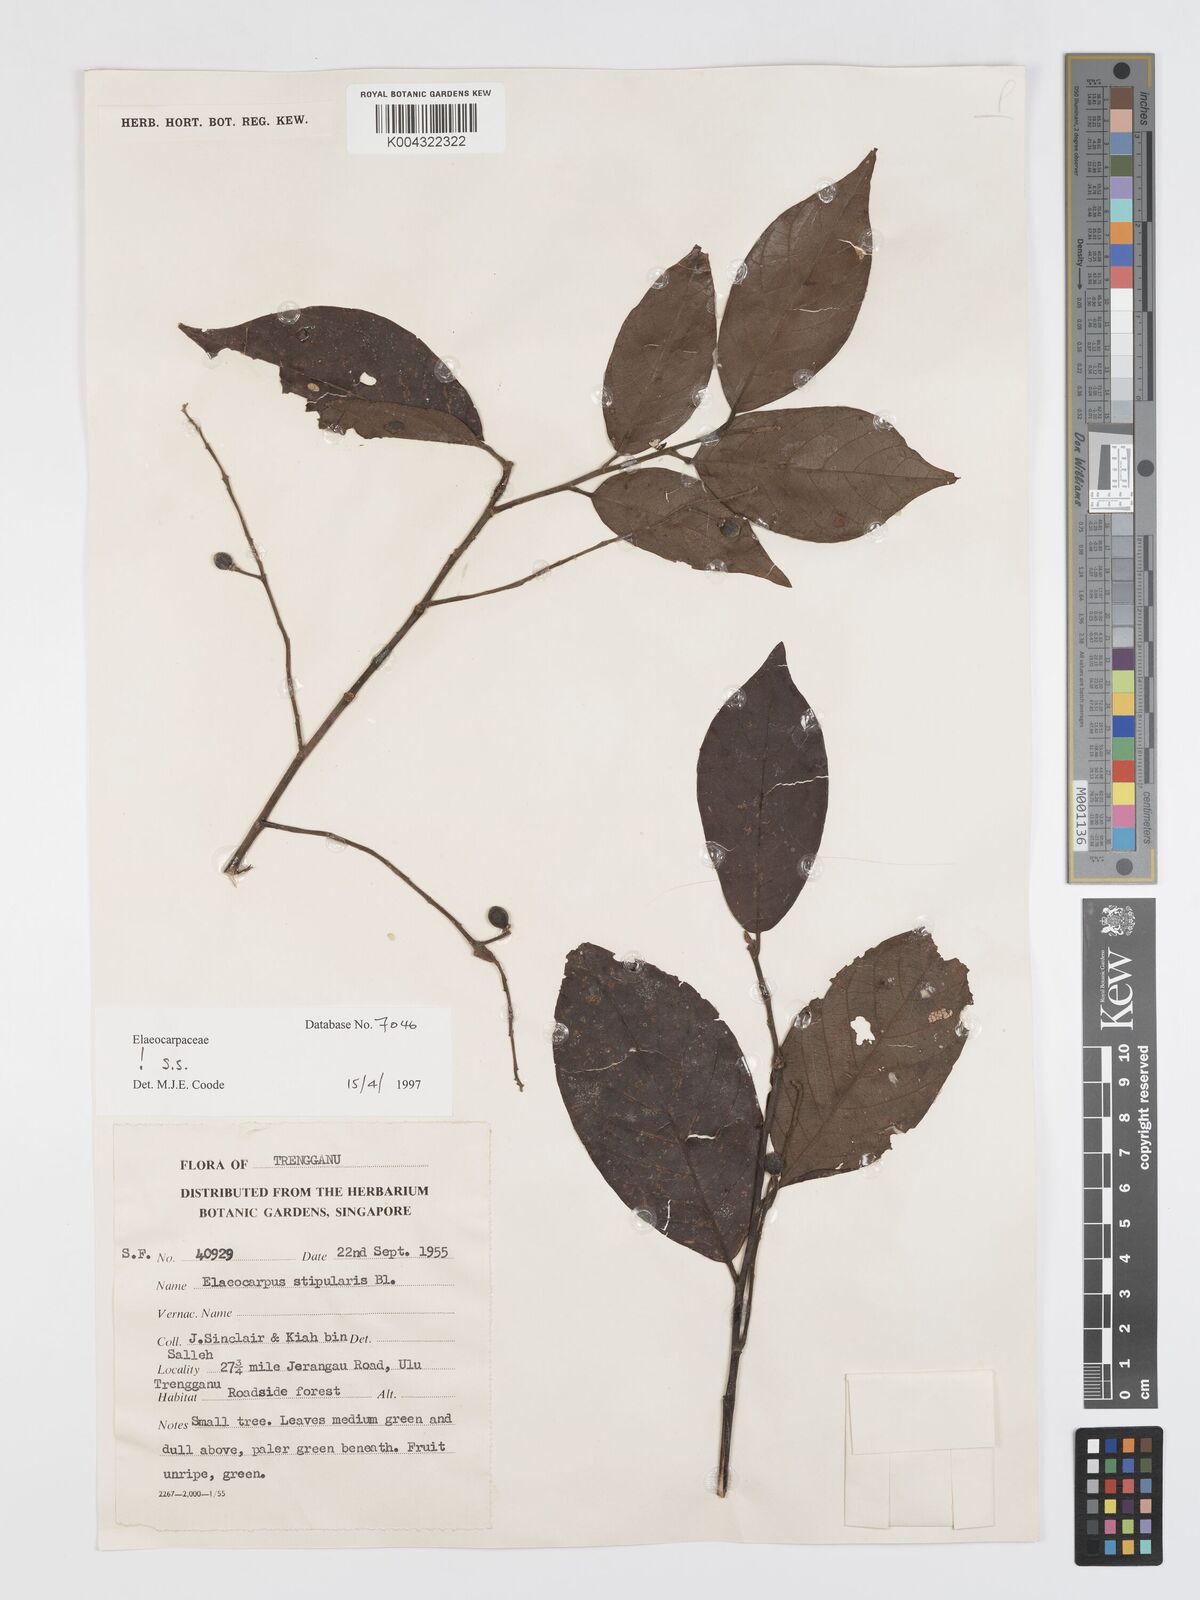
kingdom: Plantae
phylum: Tracheophyta
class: Magnoliopsida
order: Oxalidales
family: Elaeocarpaceae
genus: Elaeocarpus
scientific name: Elaeocarpus stipularis
